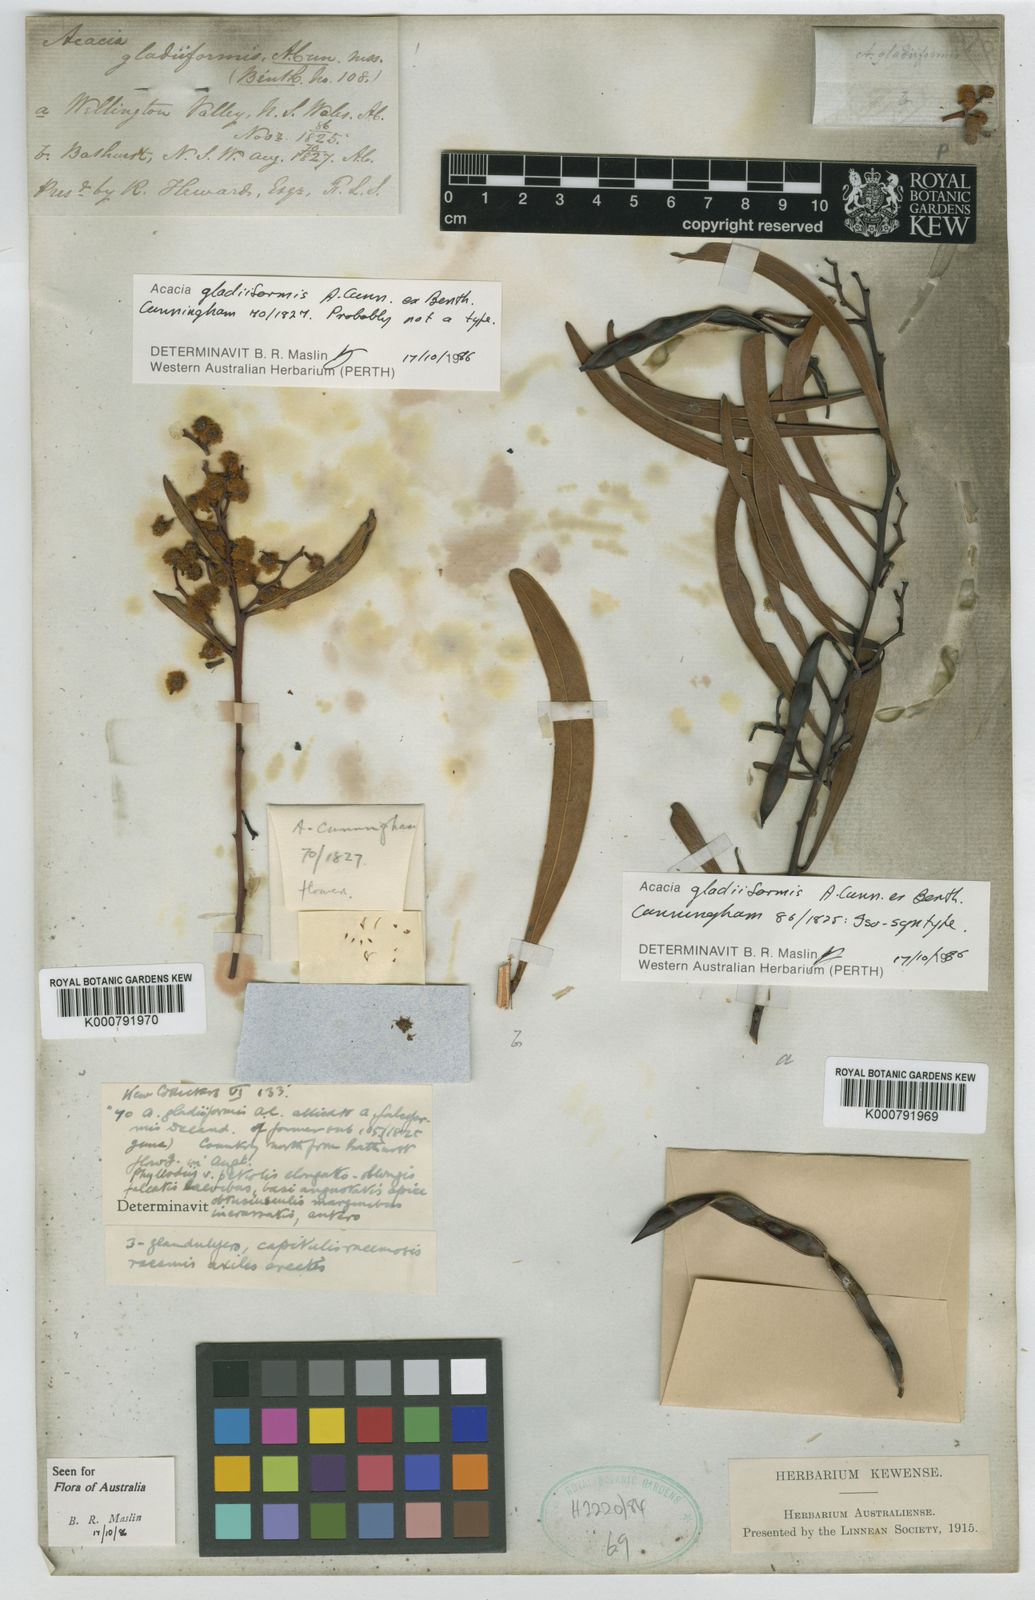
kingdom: Plantae
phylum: Tracheophyta
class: Magnoliopsida
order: Fabales
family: Fabaceae
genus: Acacia
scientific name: Acacia gladiiformis
